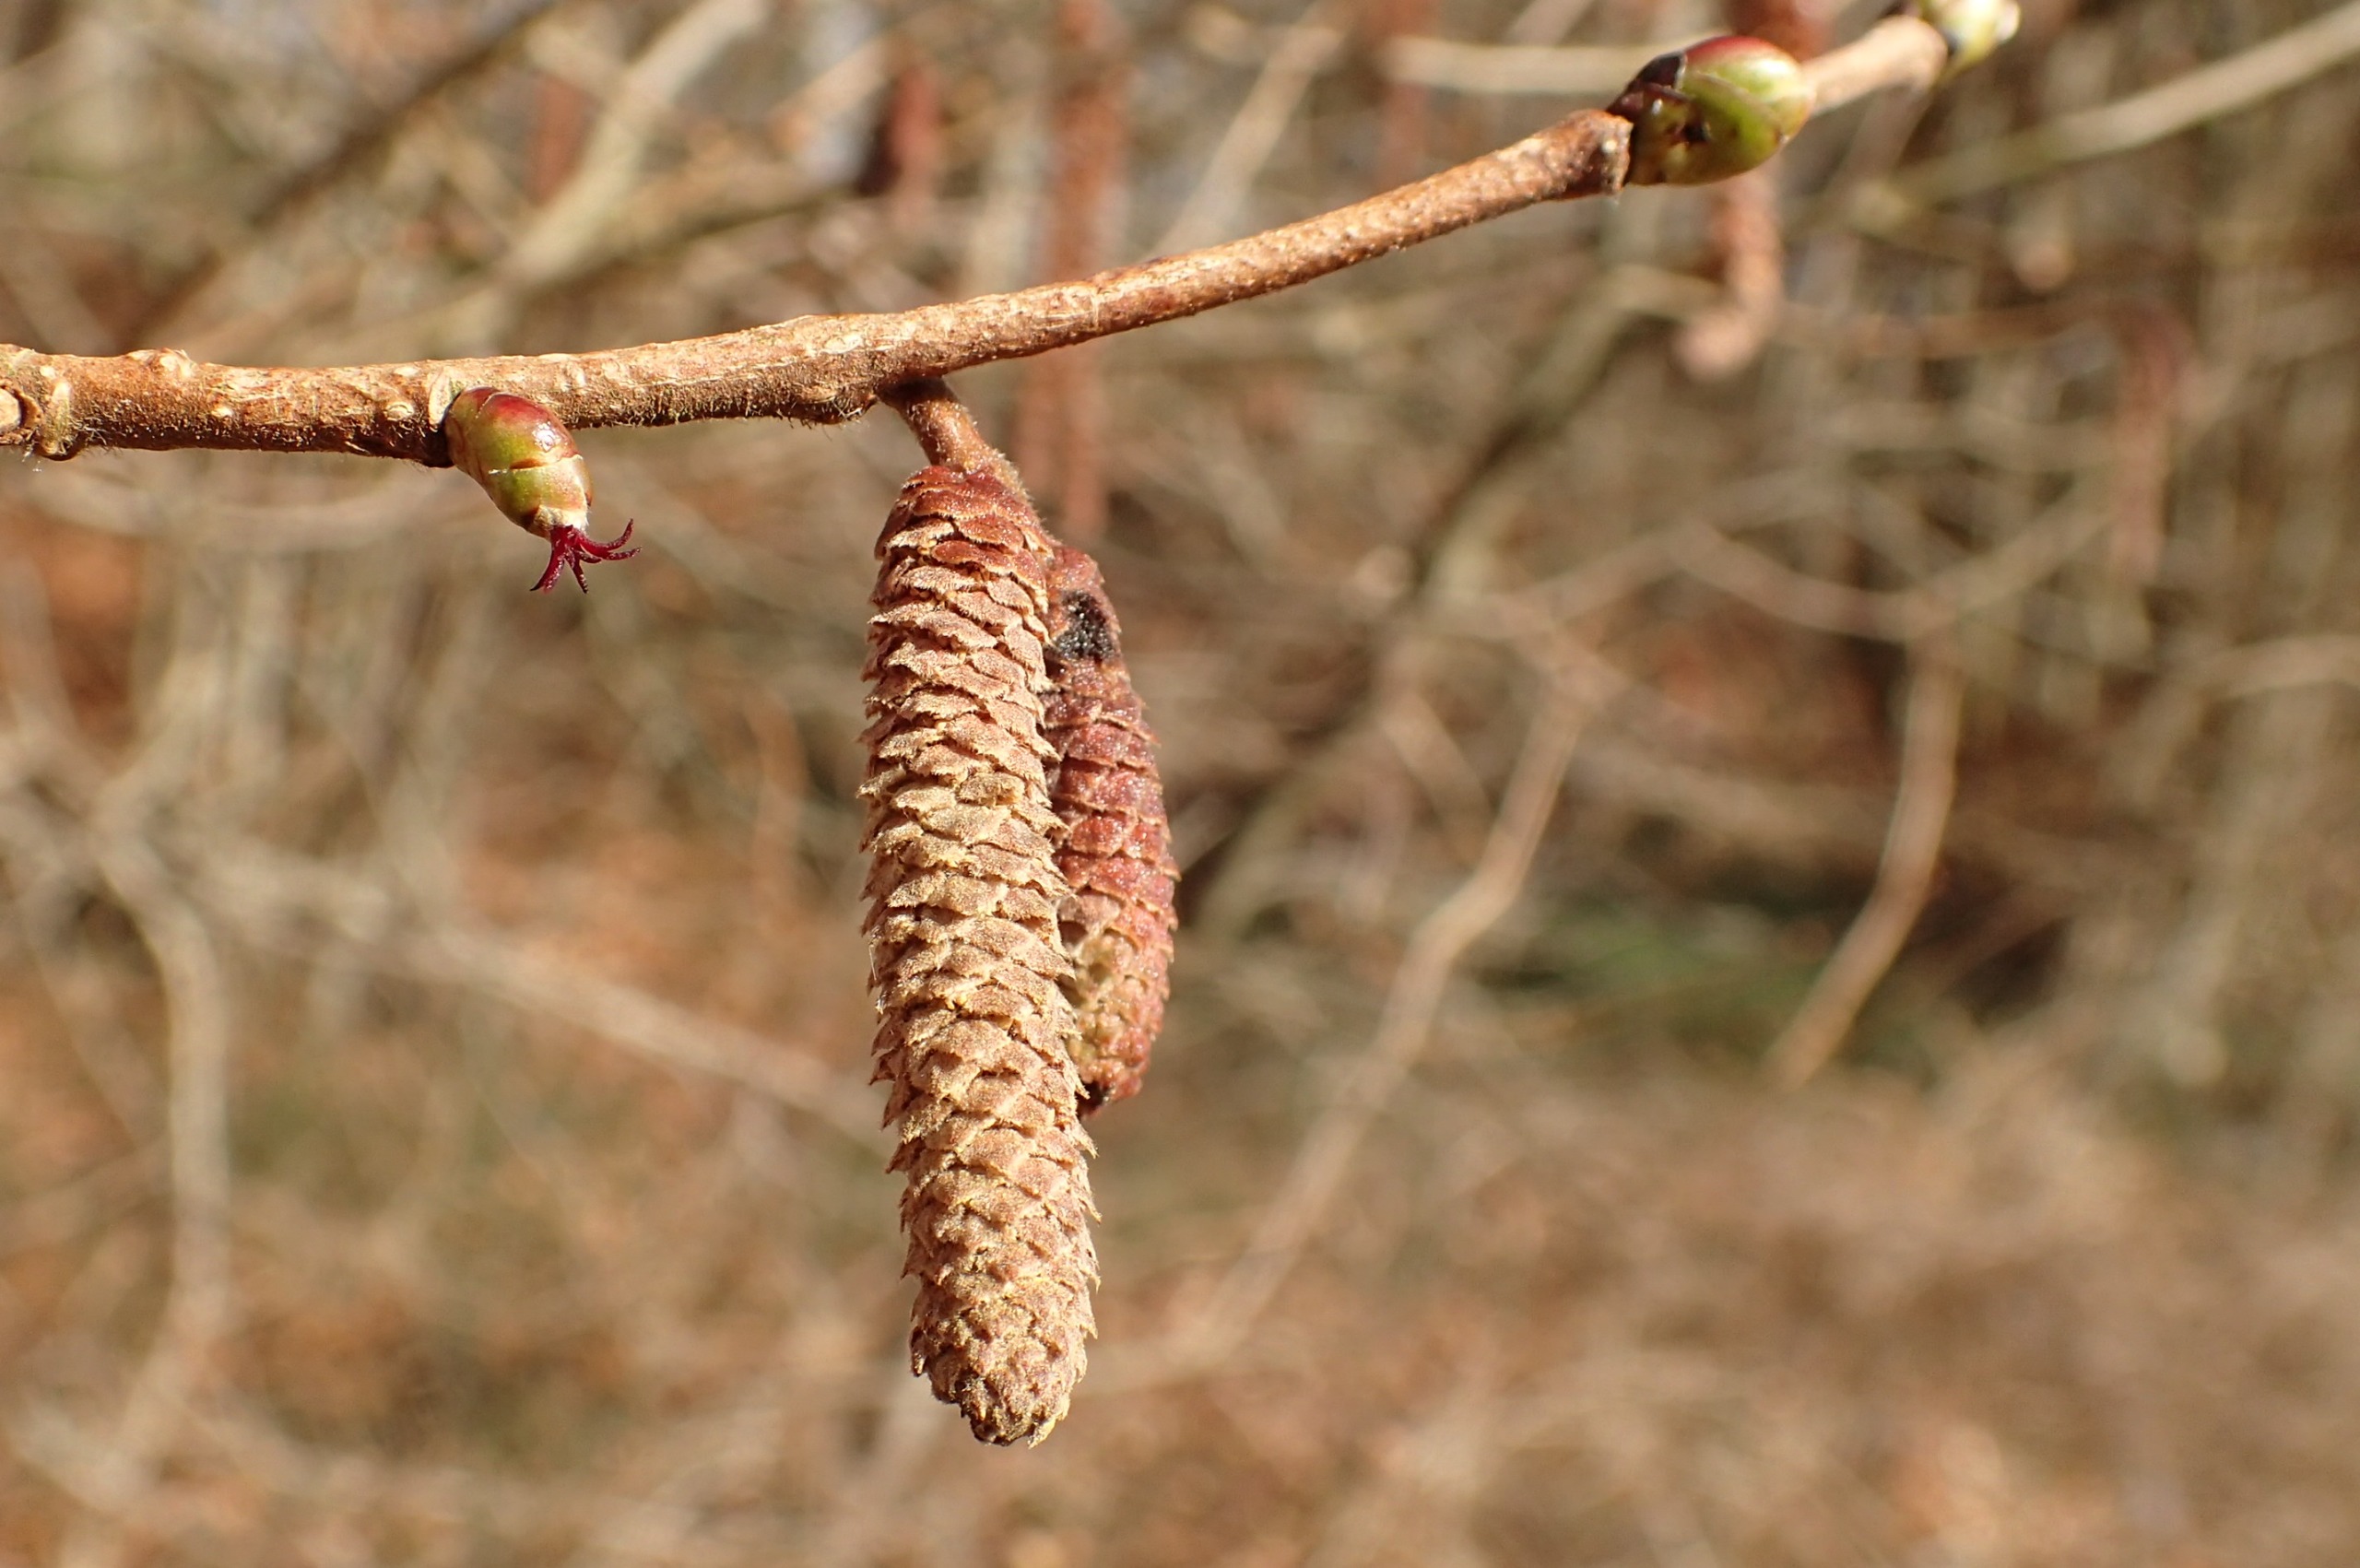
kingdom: Plantae
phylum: Tracheophyta
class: Magnoliopsida
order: Fagales
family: Betulaceae
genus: Corylus
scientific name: Corylus avellana
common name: Hassel
